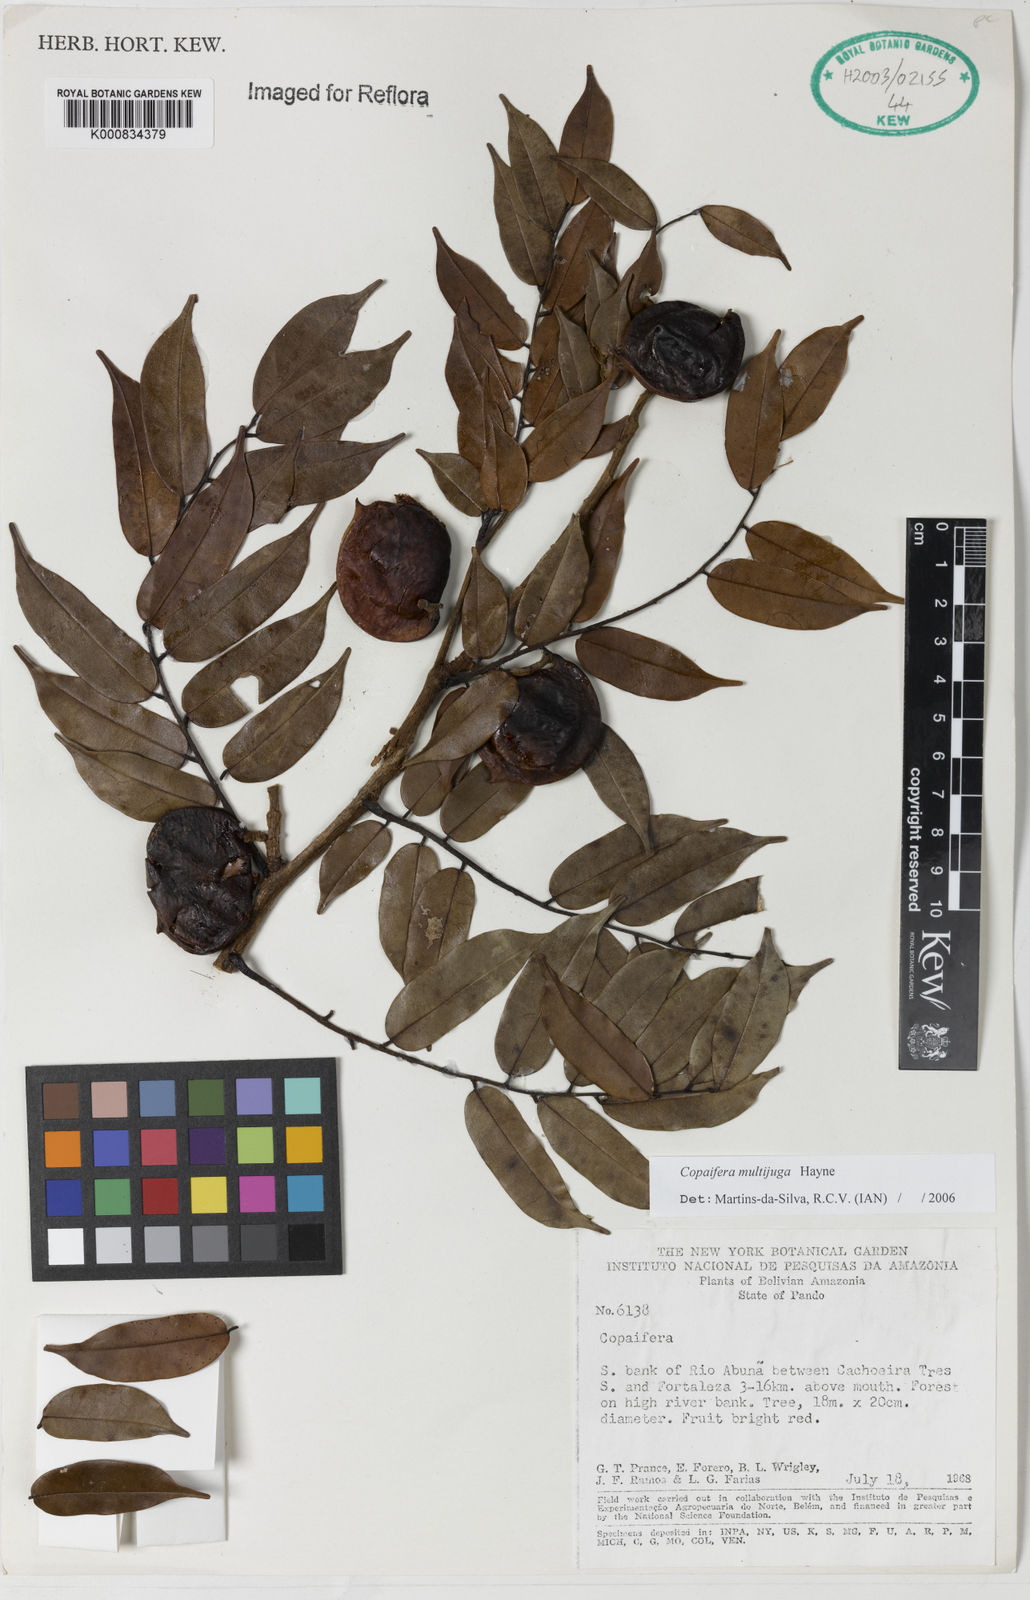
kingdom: Plantae
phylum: Tracheophyta
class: Magnoliopsida
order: Fabales
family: Fabaceae
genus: Copaifera
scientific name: Copaifera multijuga
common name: Brazilian copaiba
